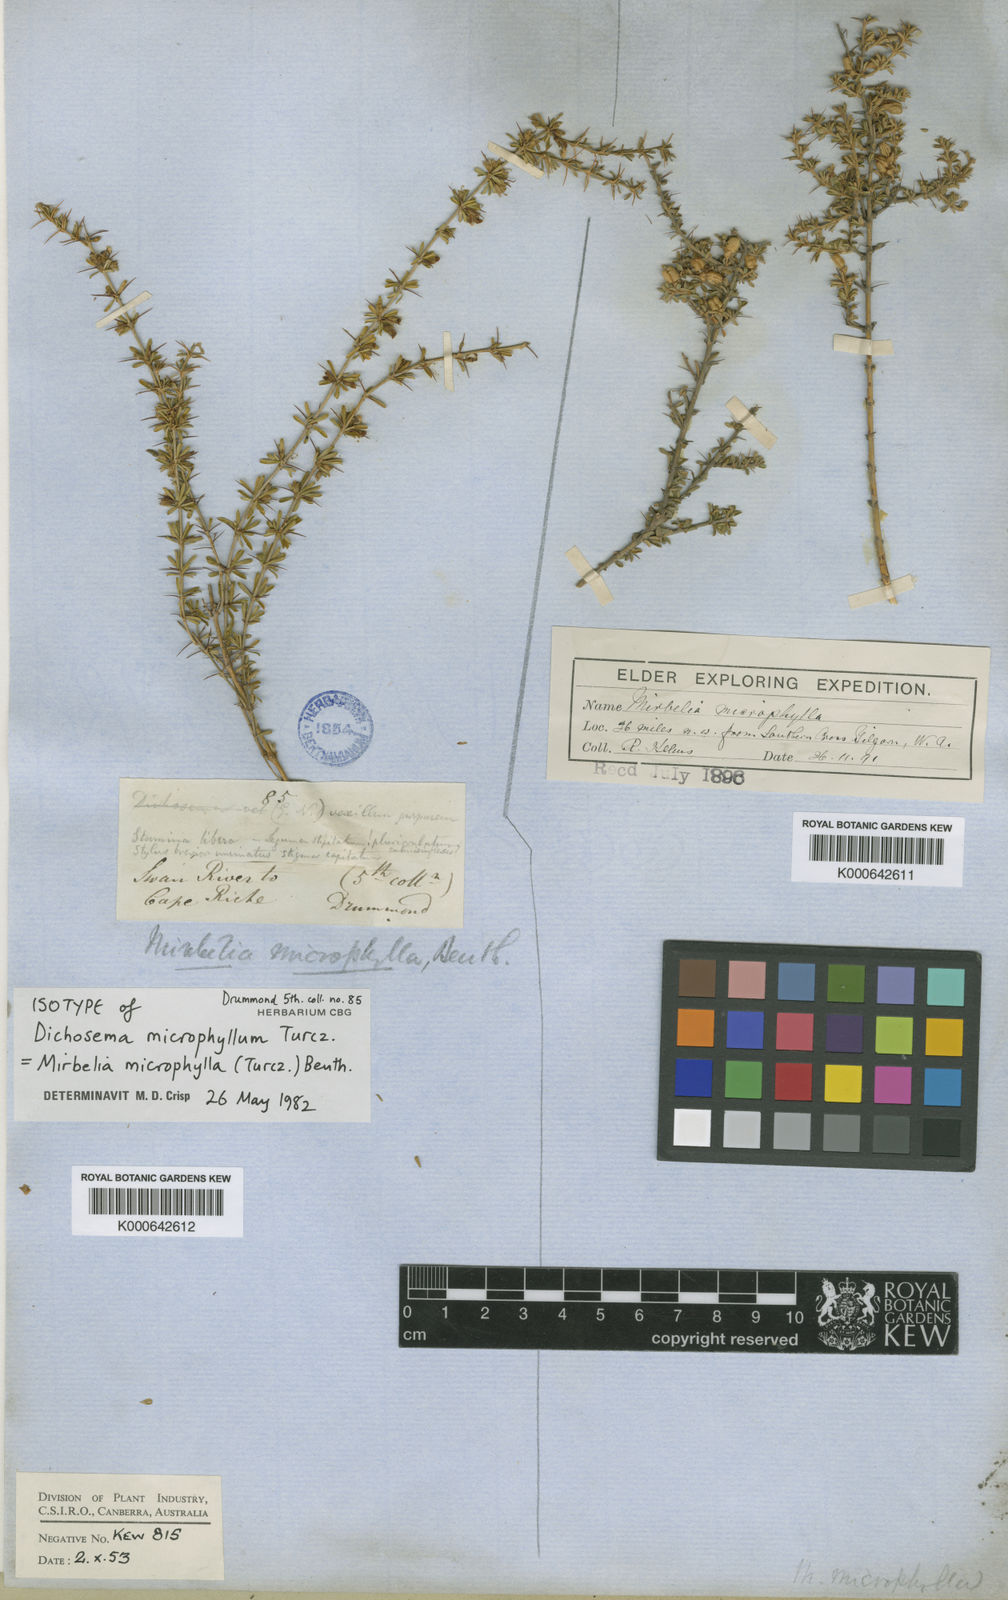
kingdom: Plantae
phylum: Tracheophyta
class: Magnoliopsida
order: Fabales
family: Fabaceae
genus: Mirbelia
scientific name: Mirbelia microphylla
